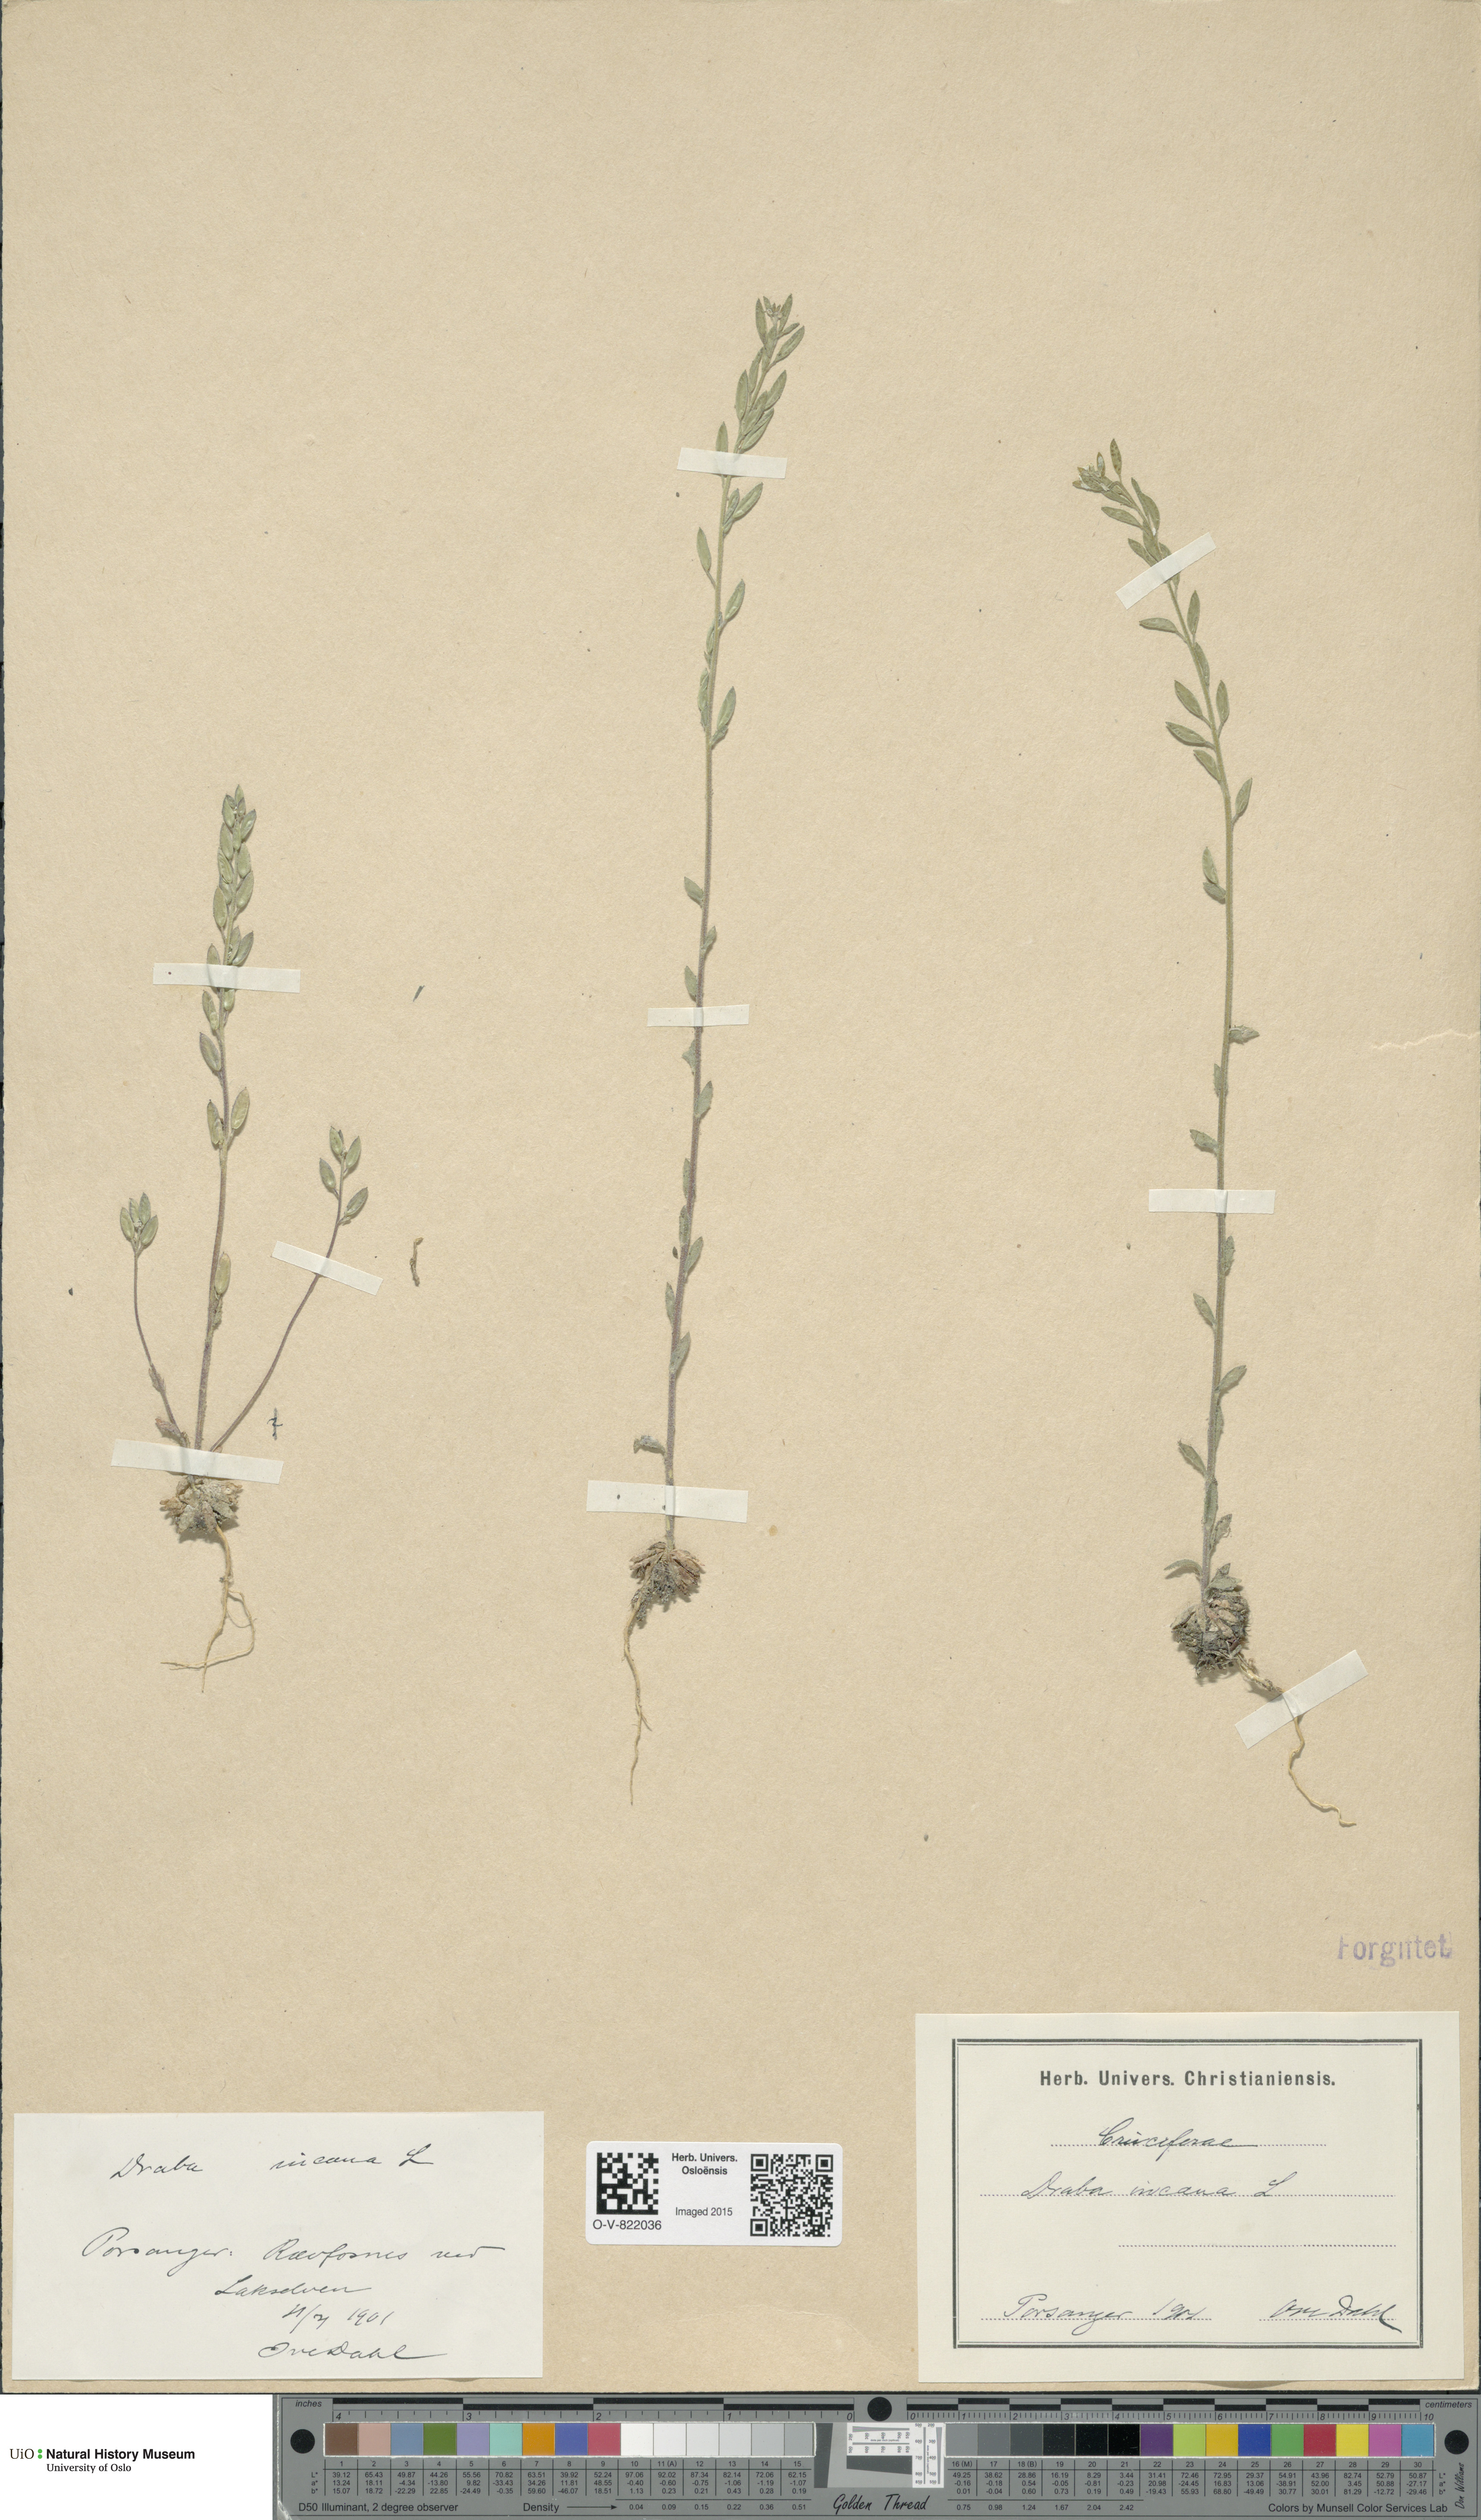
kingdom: Plantae
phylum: Tracheophyta
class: Magnoliopsida
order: Brassicales
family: Brassicaceae
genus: Draba
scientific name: Draba incana
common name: Hoary whitlow-grass
